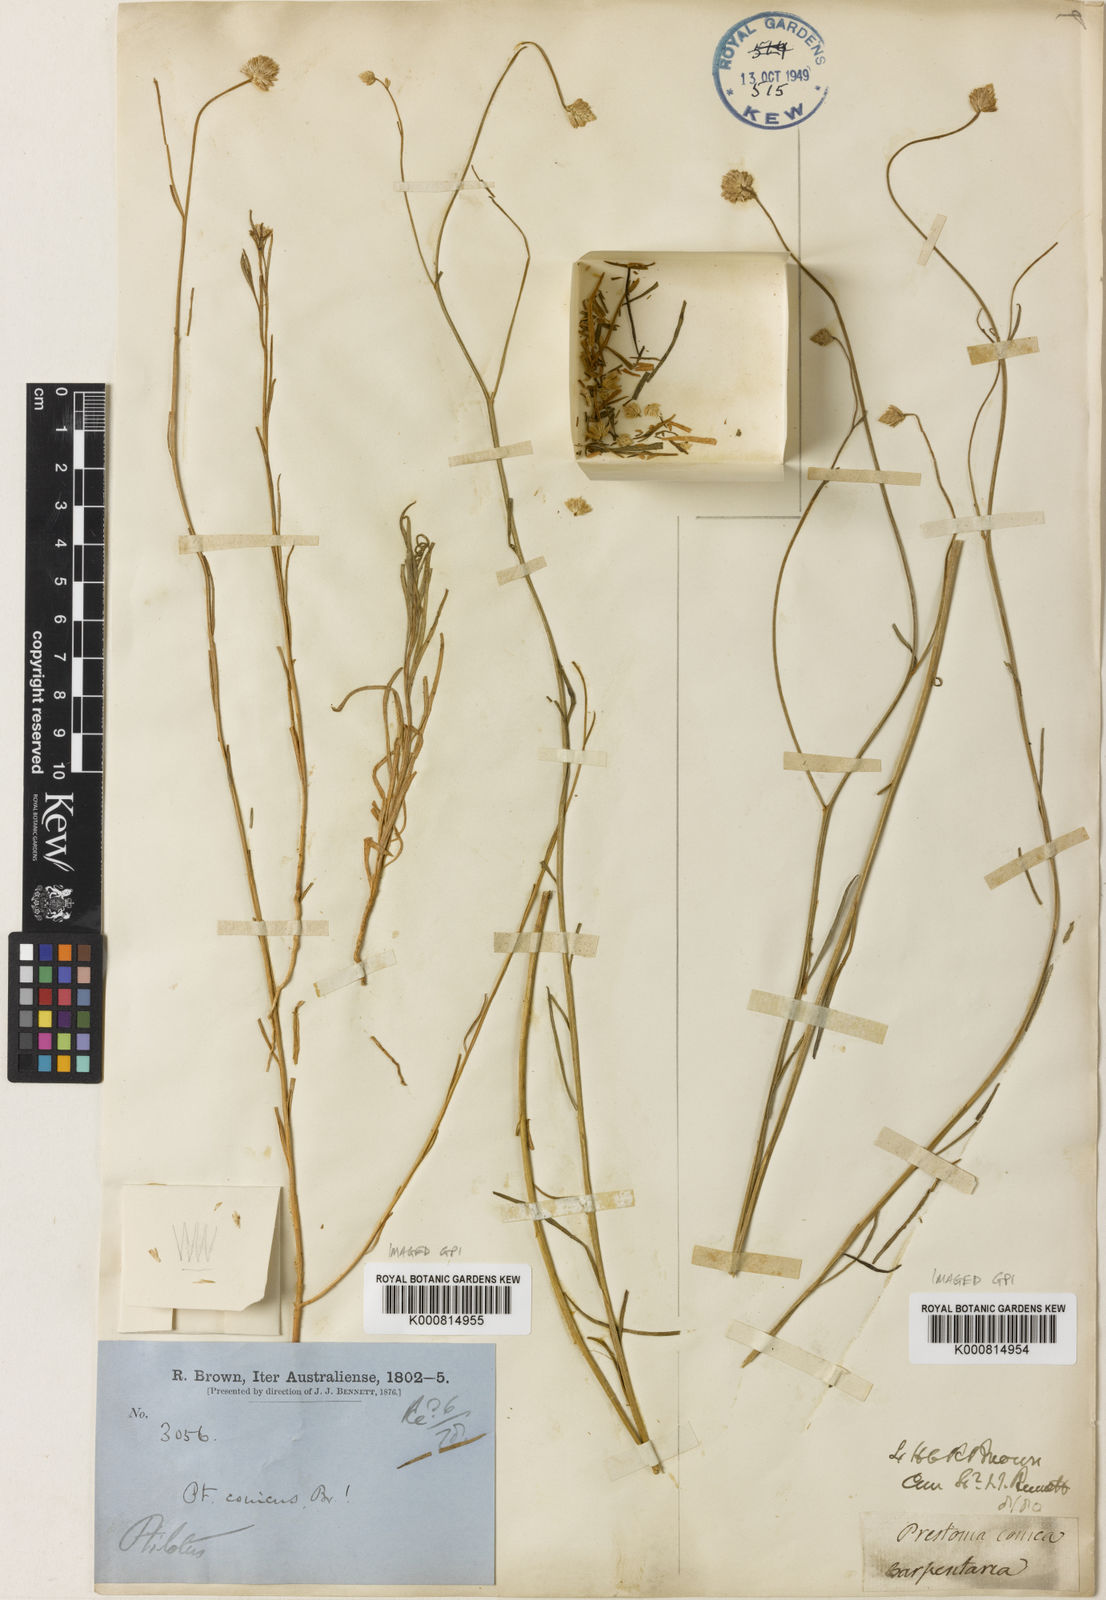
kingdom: Plantae
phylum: Tracheophyta
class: Magnoliopsida
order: Caryophyllales
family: Amaranthaceae
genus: Ptilotus
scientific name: Ptilotus conicus
